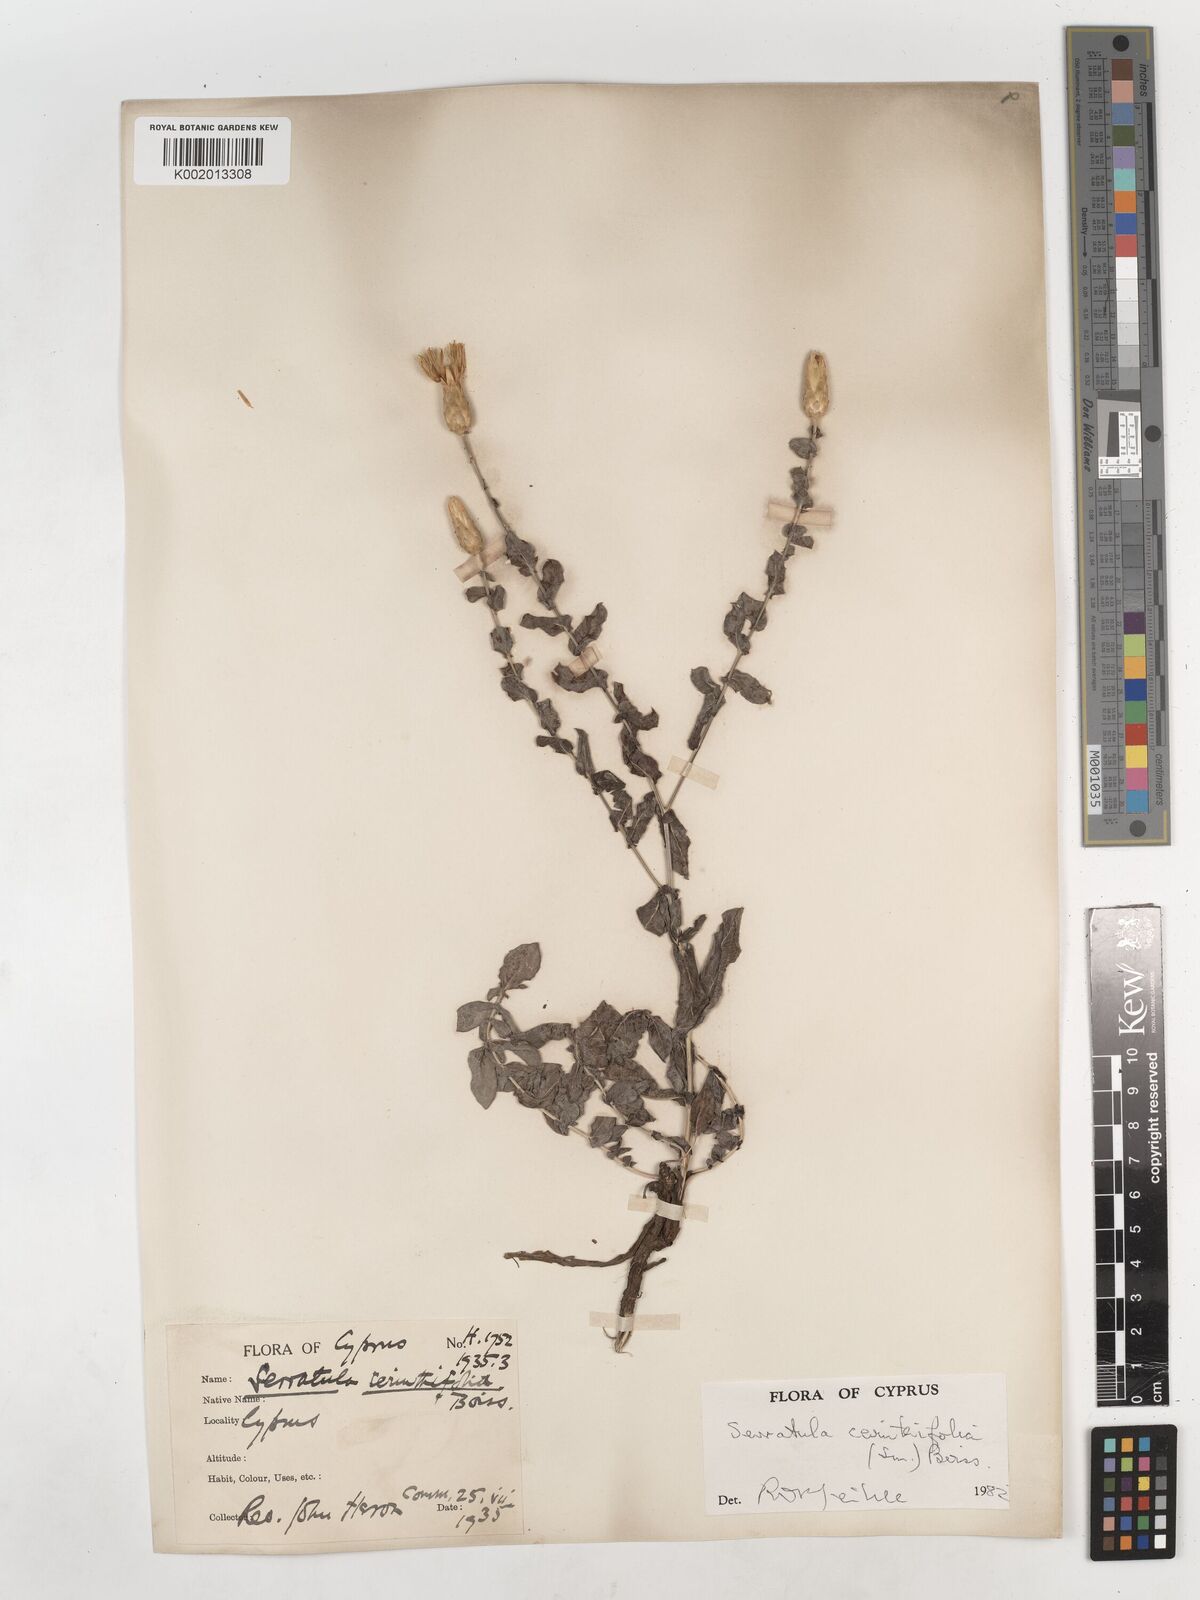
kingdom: Plantae
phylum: Tracheophyta
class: Magnoliopsida
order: Asterales
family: Asteraceae
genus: Klasea
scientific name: Klasea cerinthifolia
